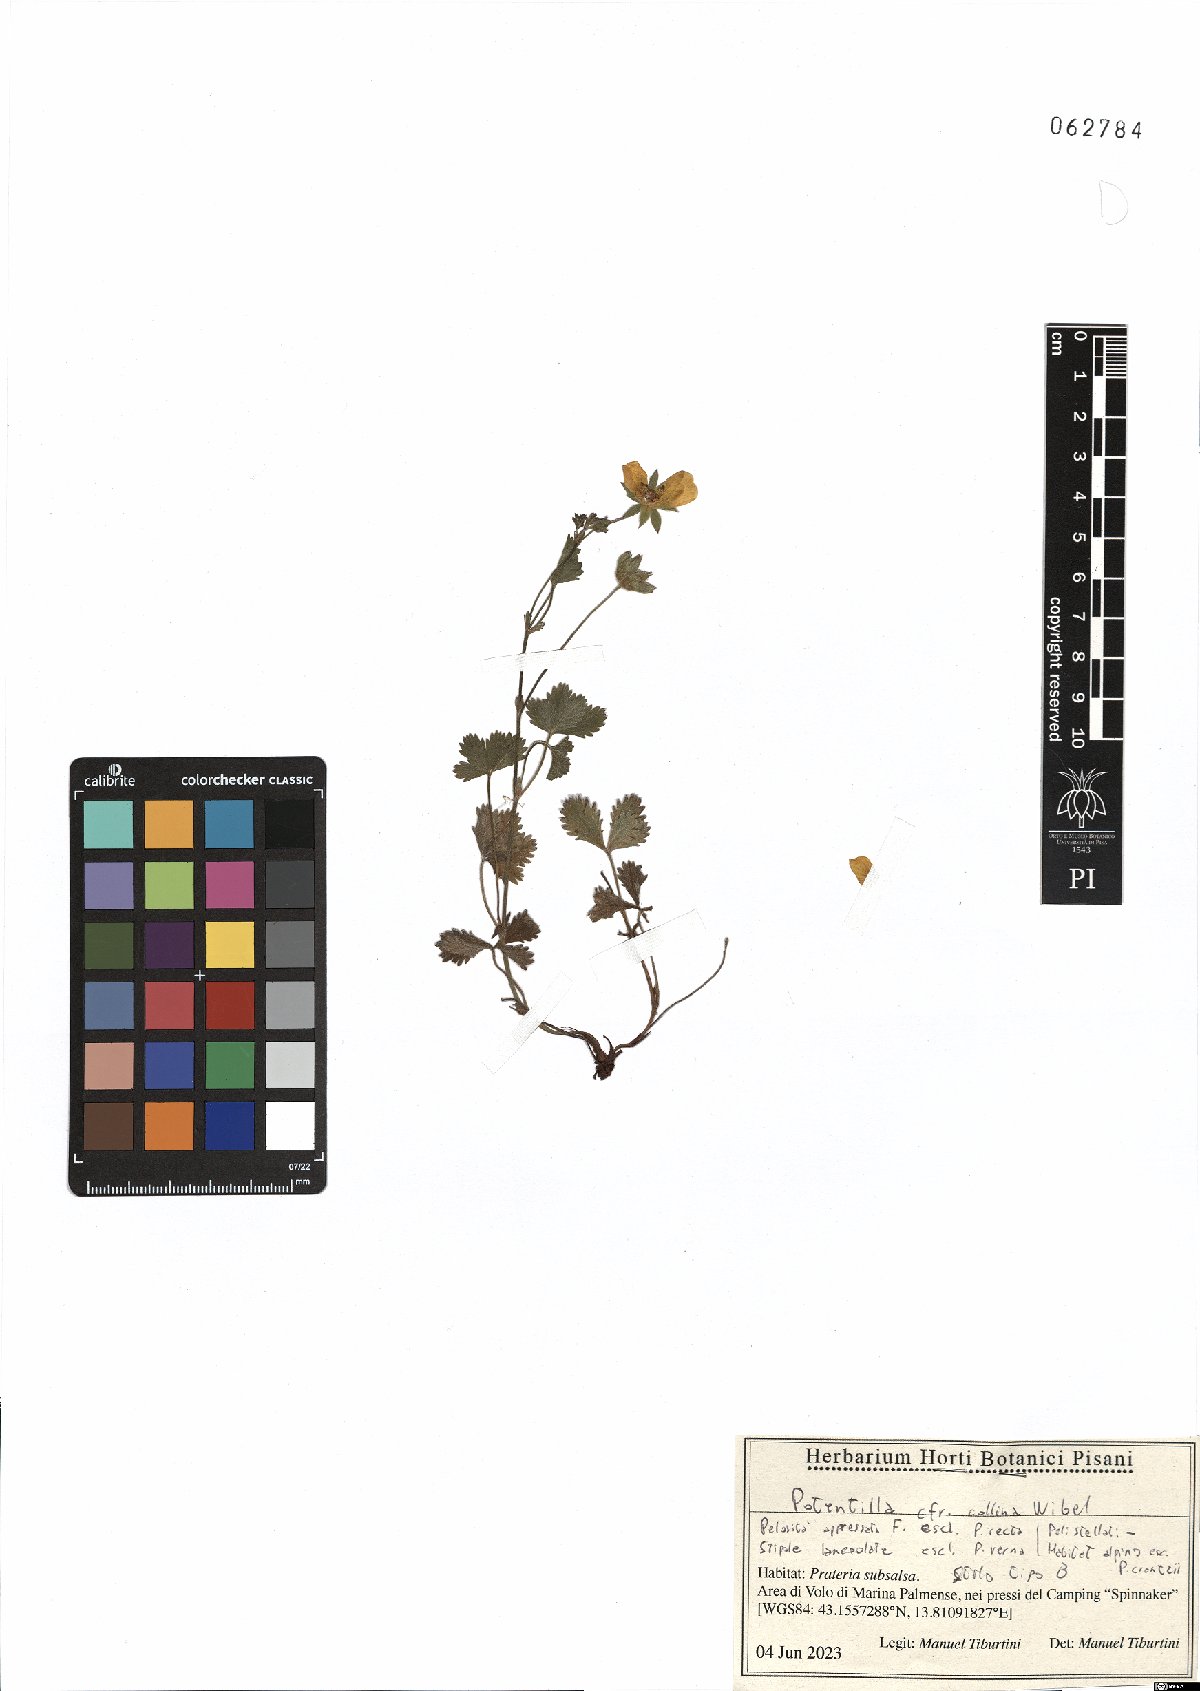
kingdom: Plantae
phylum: Tracheophyta
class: Magnoliopsida
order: Rosales
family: Rosaceae
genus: Potentilla
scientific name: Potentilla collina
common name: Palmleaf cinquefoil
